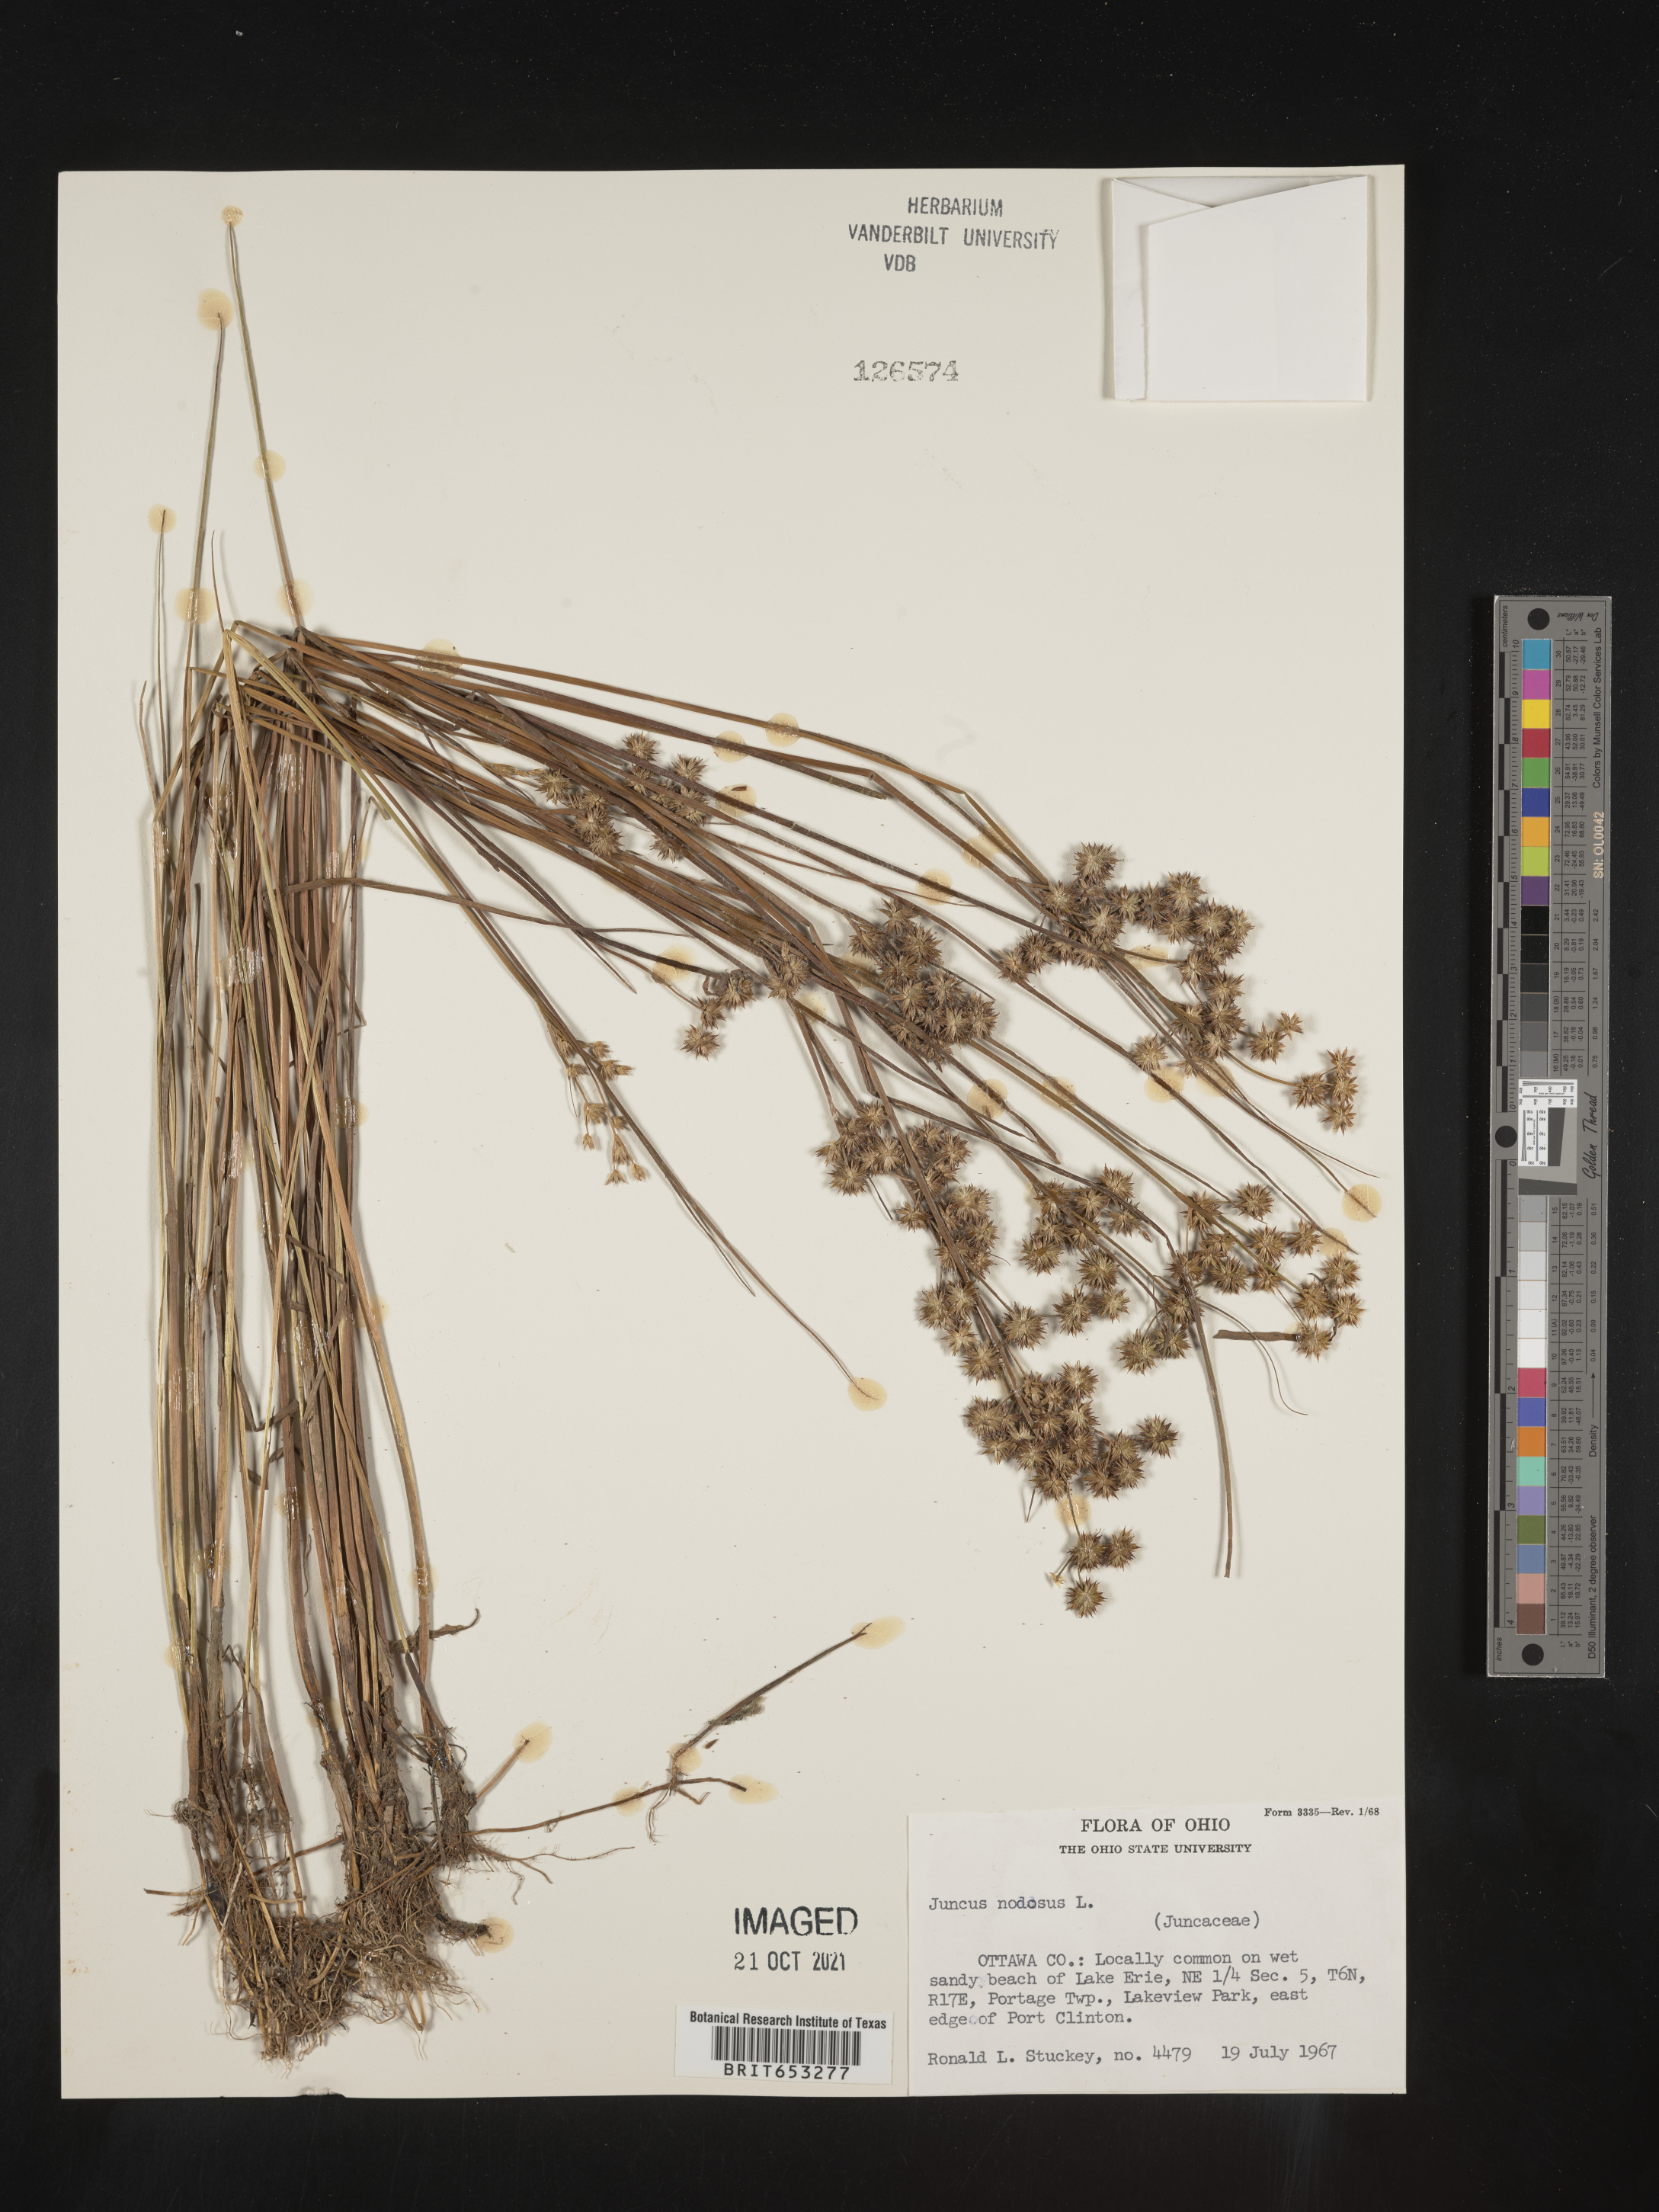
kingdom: Plantae
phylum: Tracheophyta
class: Liliopsida
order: Poales
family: Juncaceae
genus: Juncus
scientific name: Juncus nodosus
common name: Knotted rush
